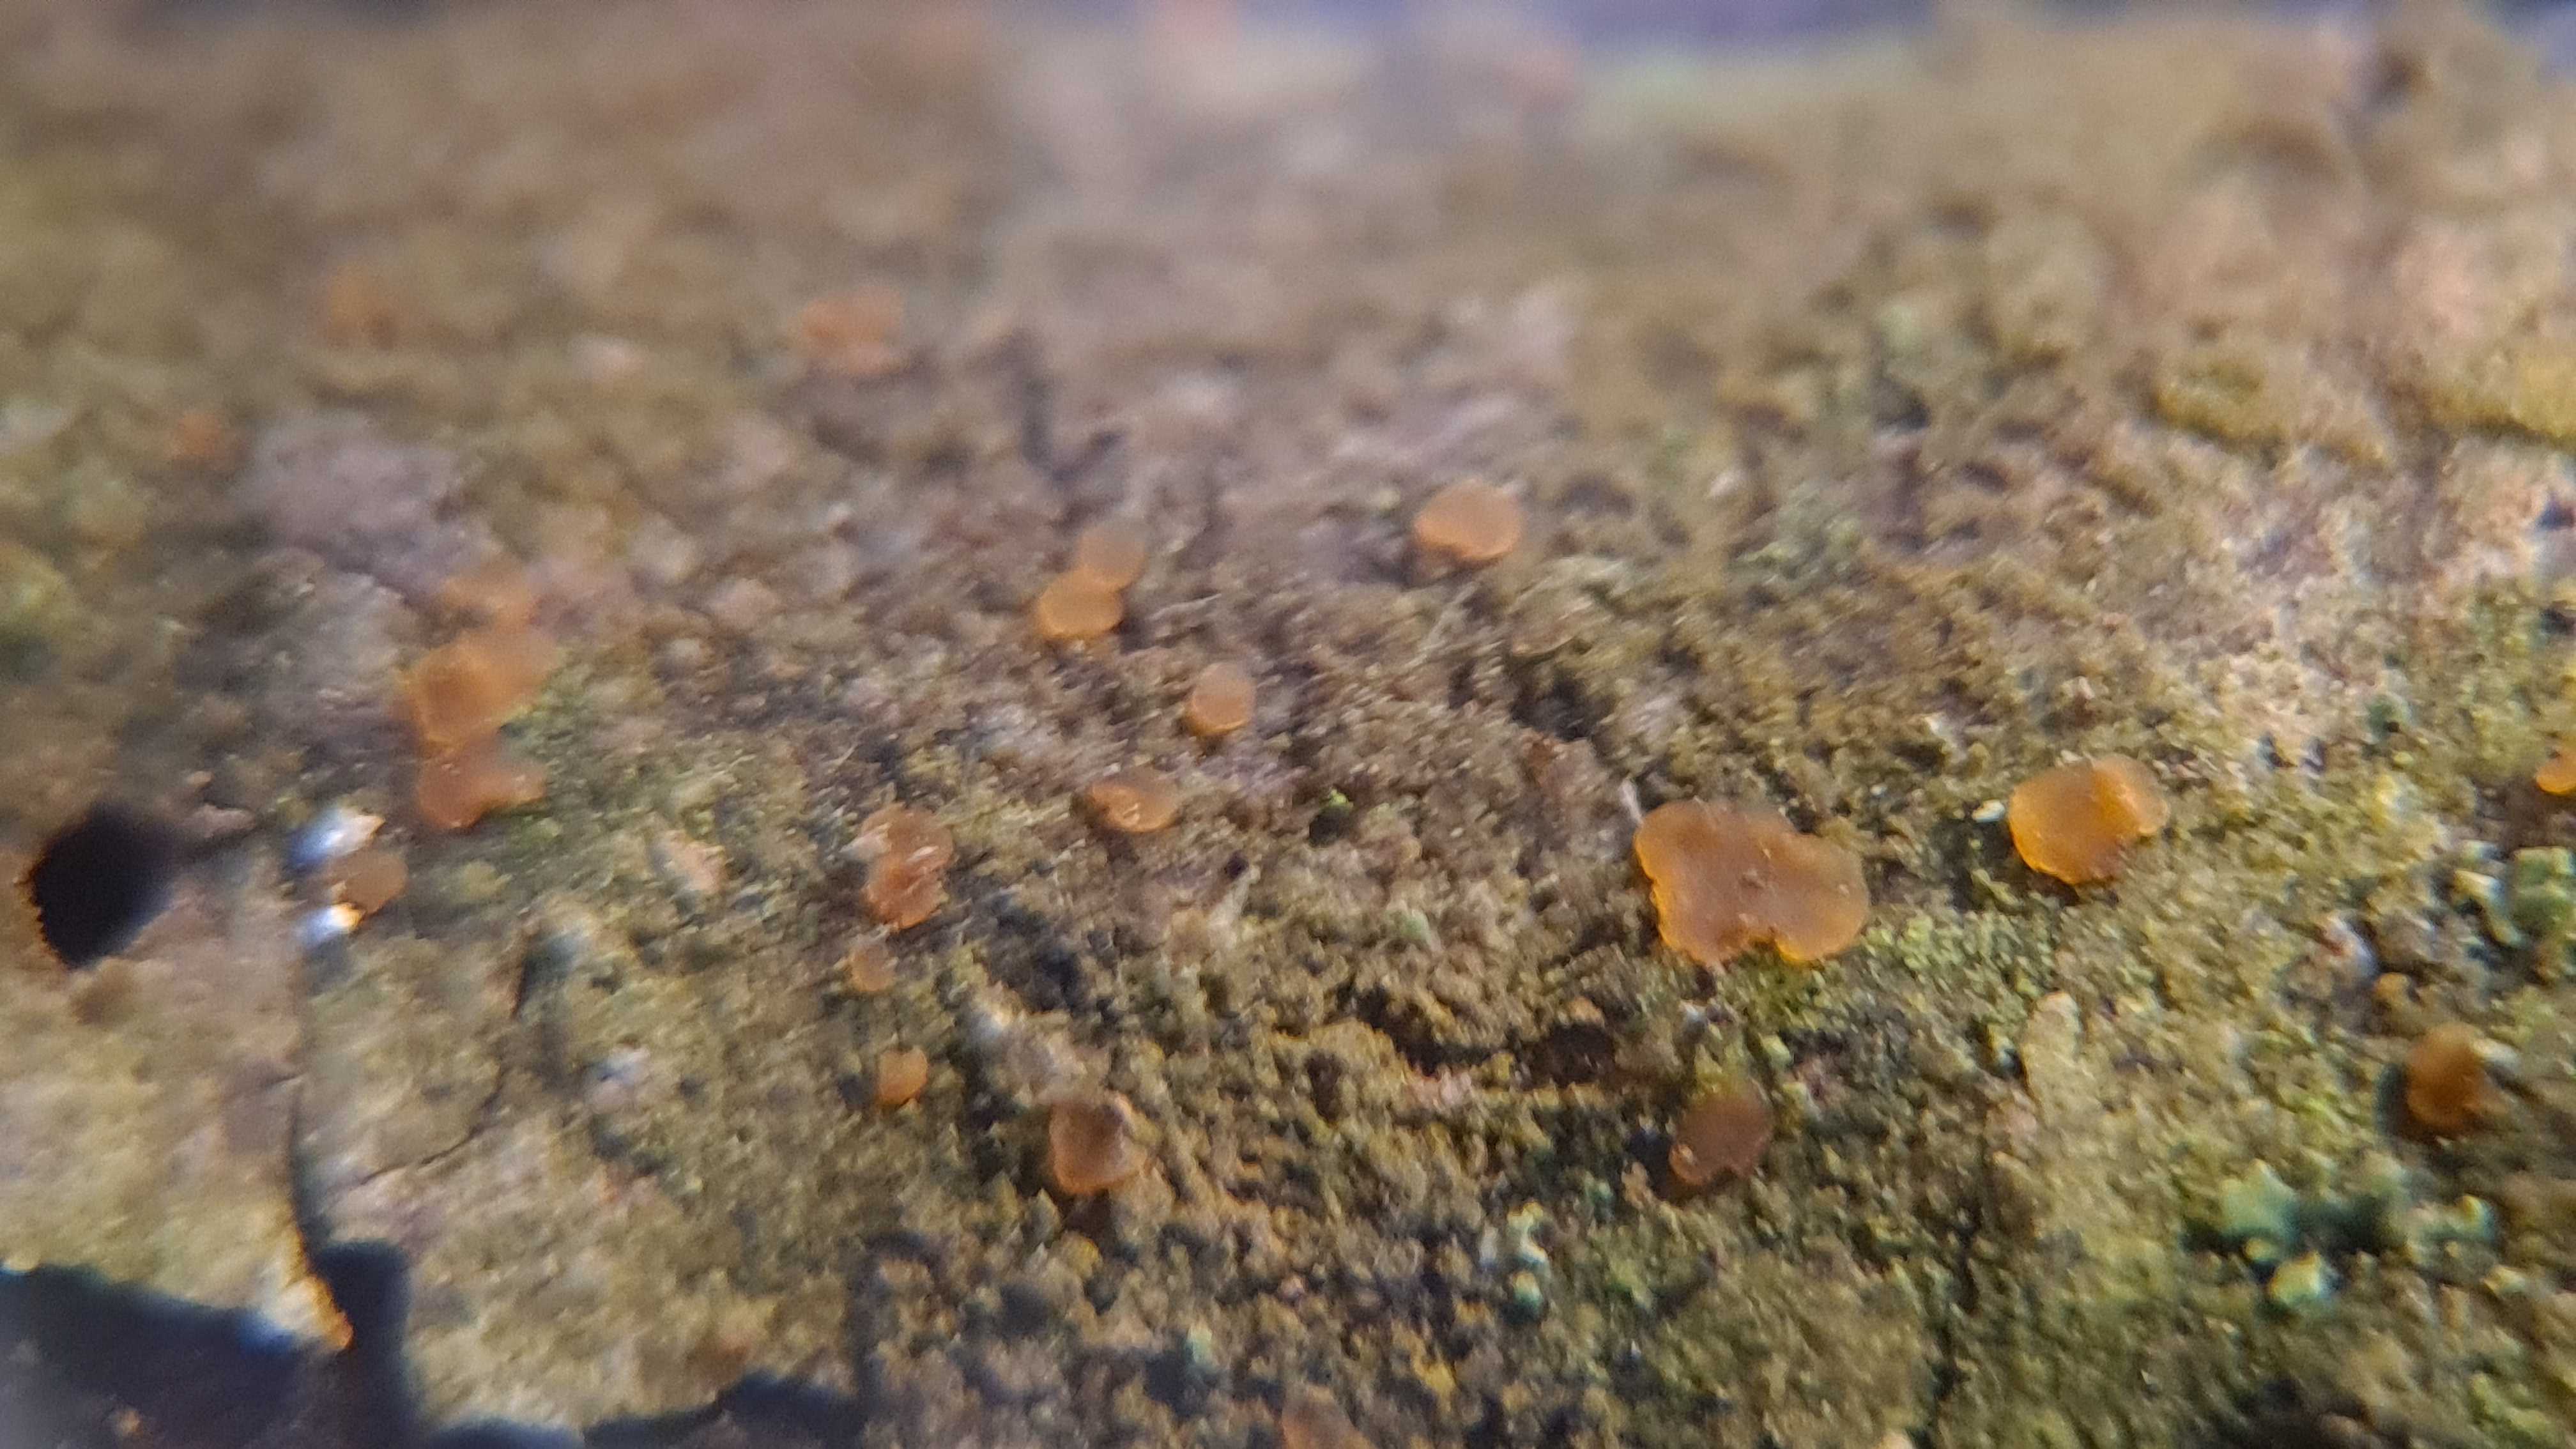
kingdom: Fungi
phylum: Ascomycota
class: Orbiliomycetes
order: Orbiliales
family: Orbiliaceae
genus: Orbilia
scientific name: Orbilia
